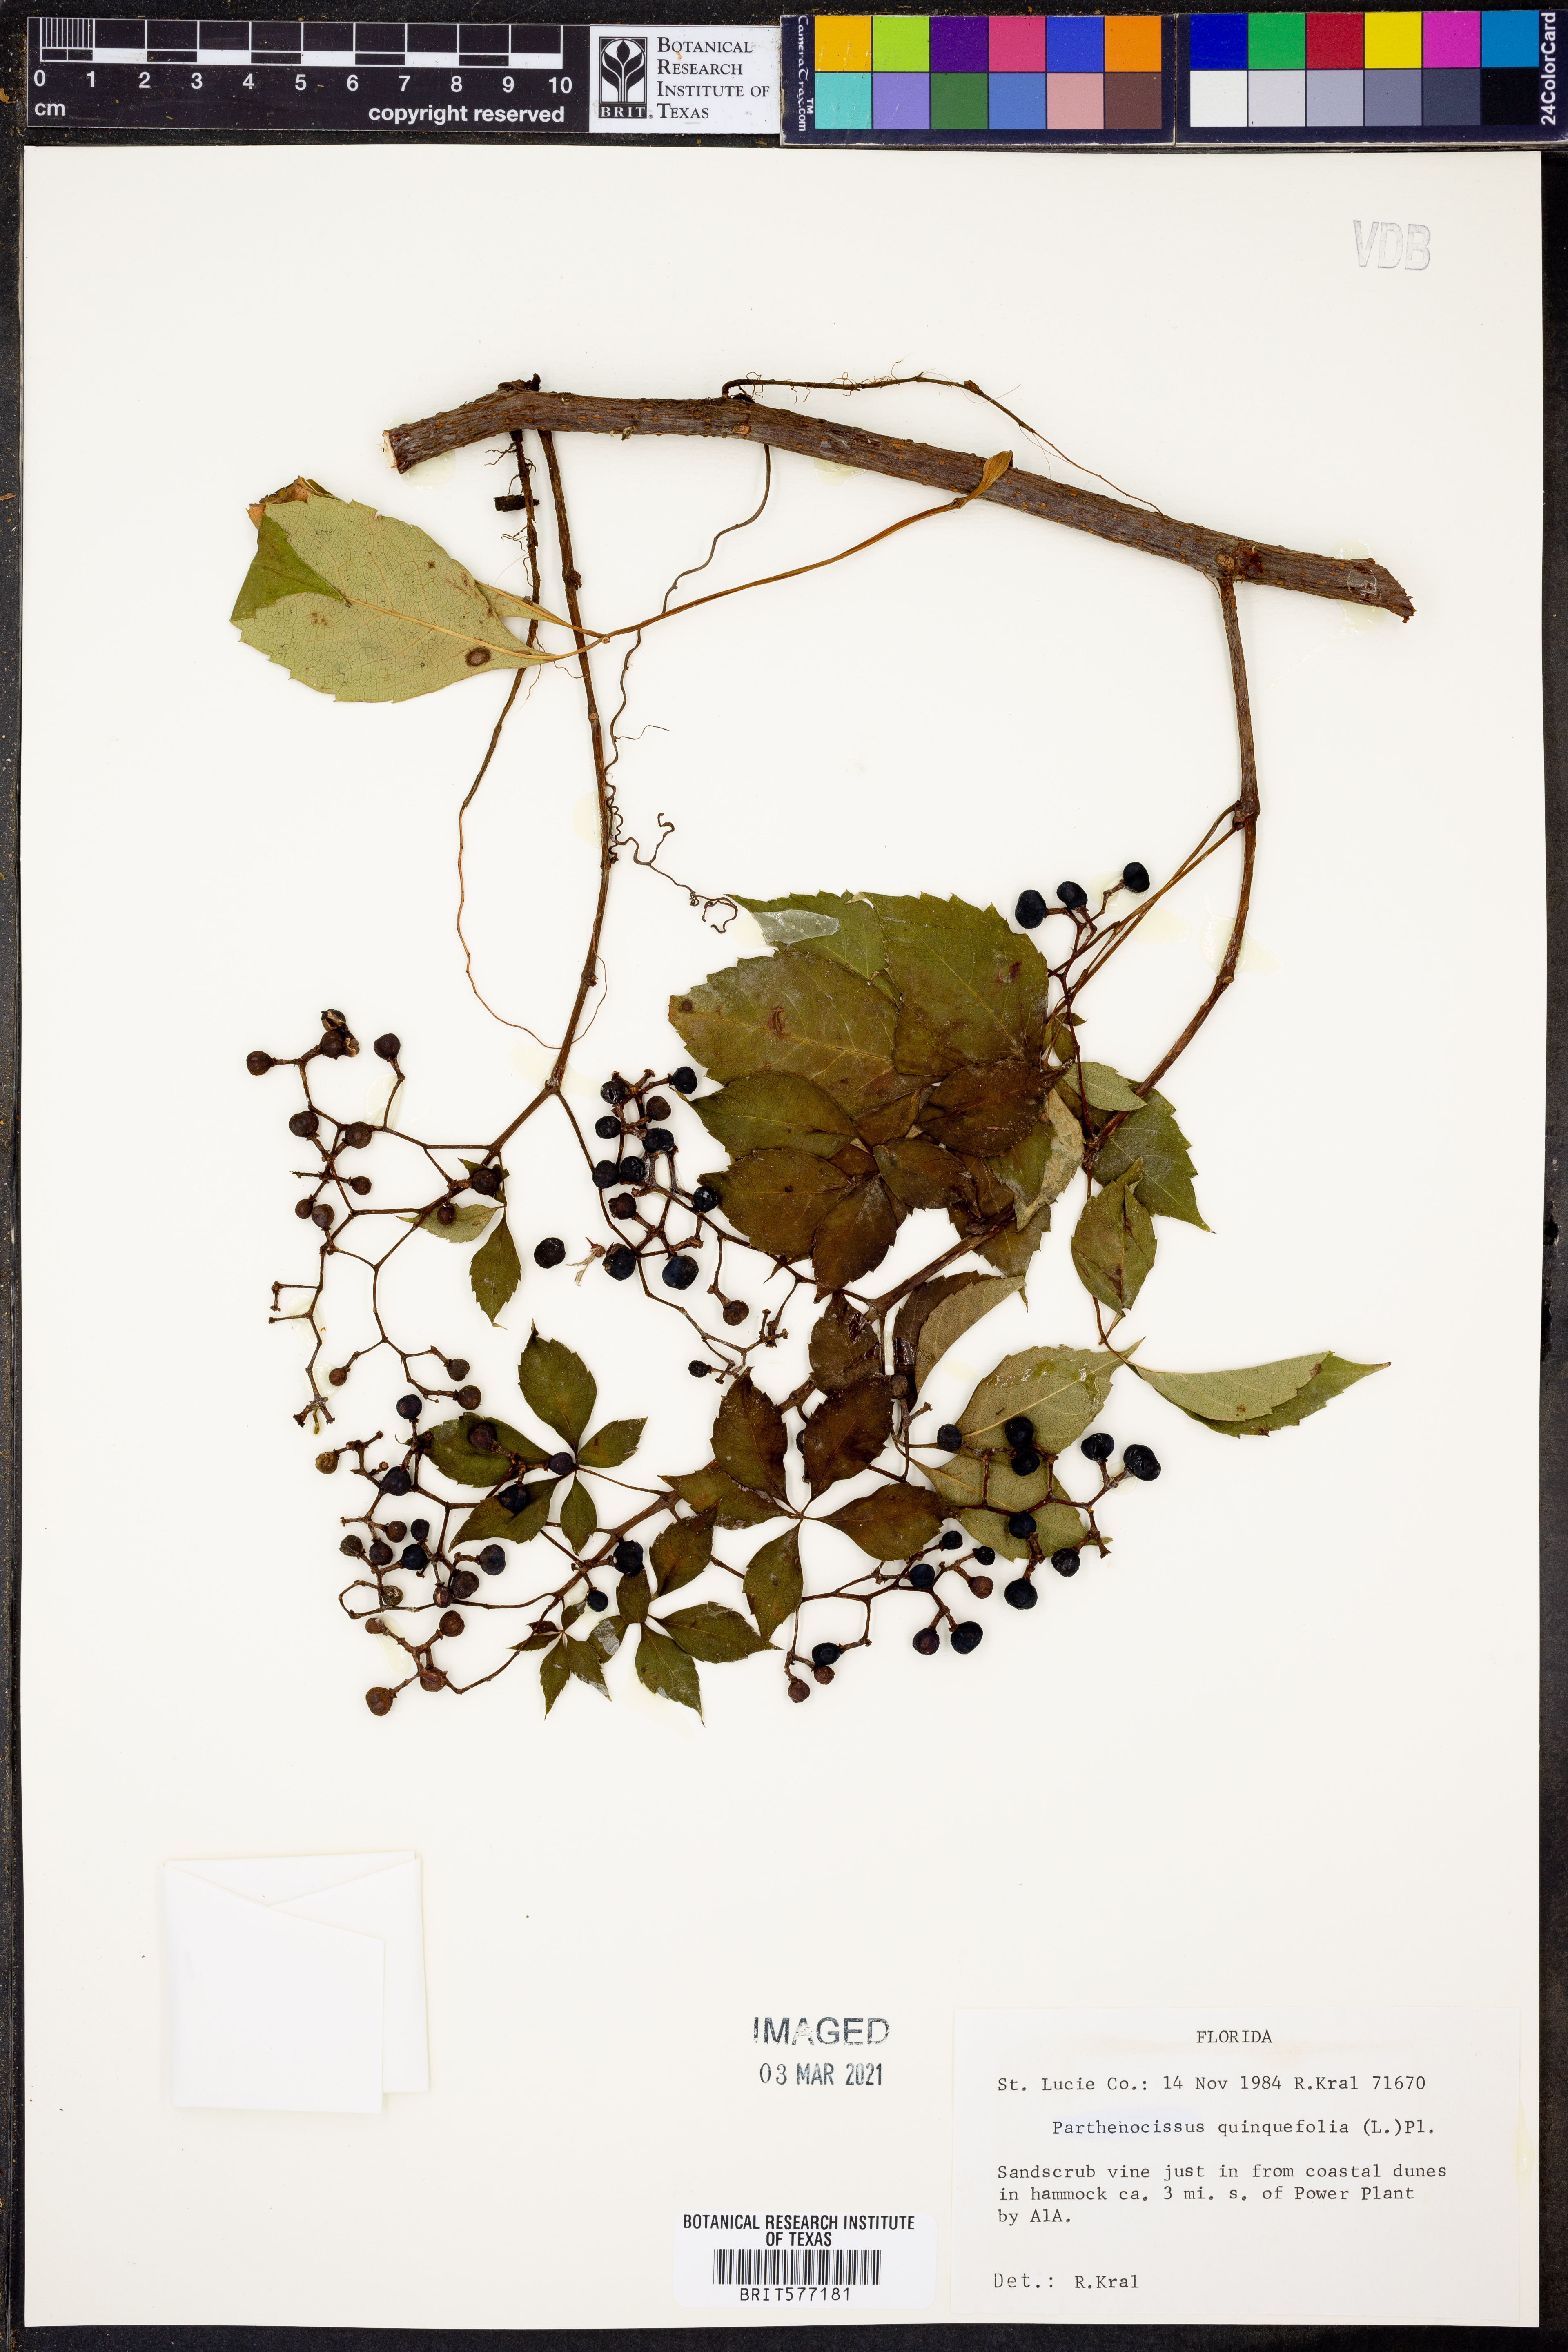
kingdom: Plantae
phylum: Tracheophyta
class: Magnoliopsida
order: Vitales
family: Vitaceae
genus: Parthenocissus
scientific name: Parthenocissus quinquefolia
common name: Virginia-creeper
